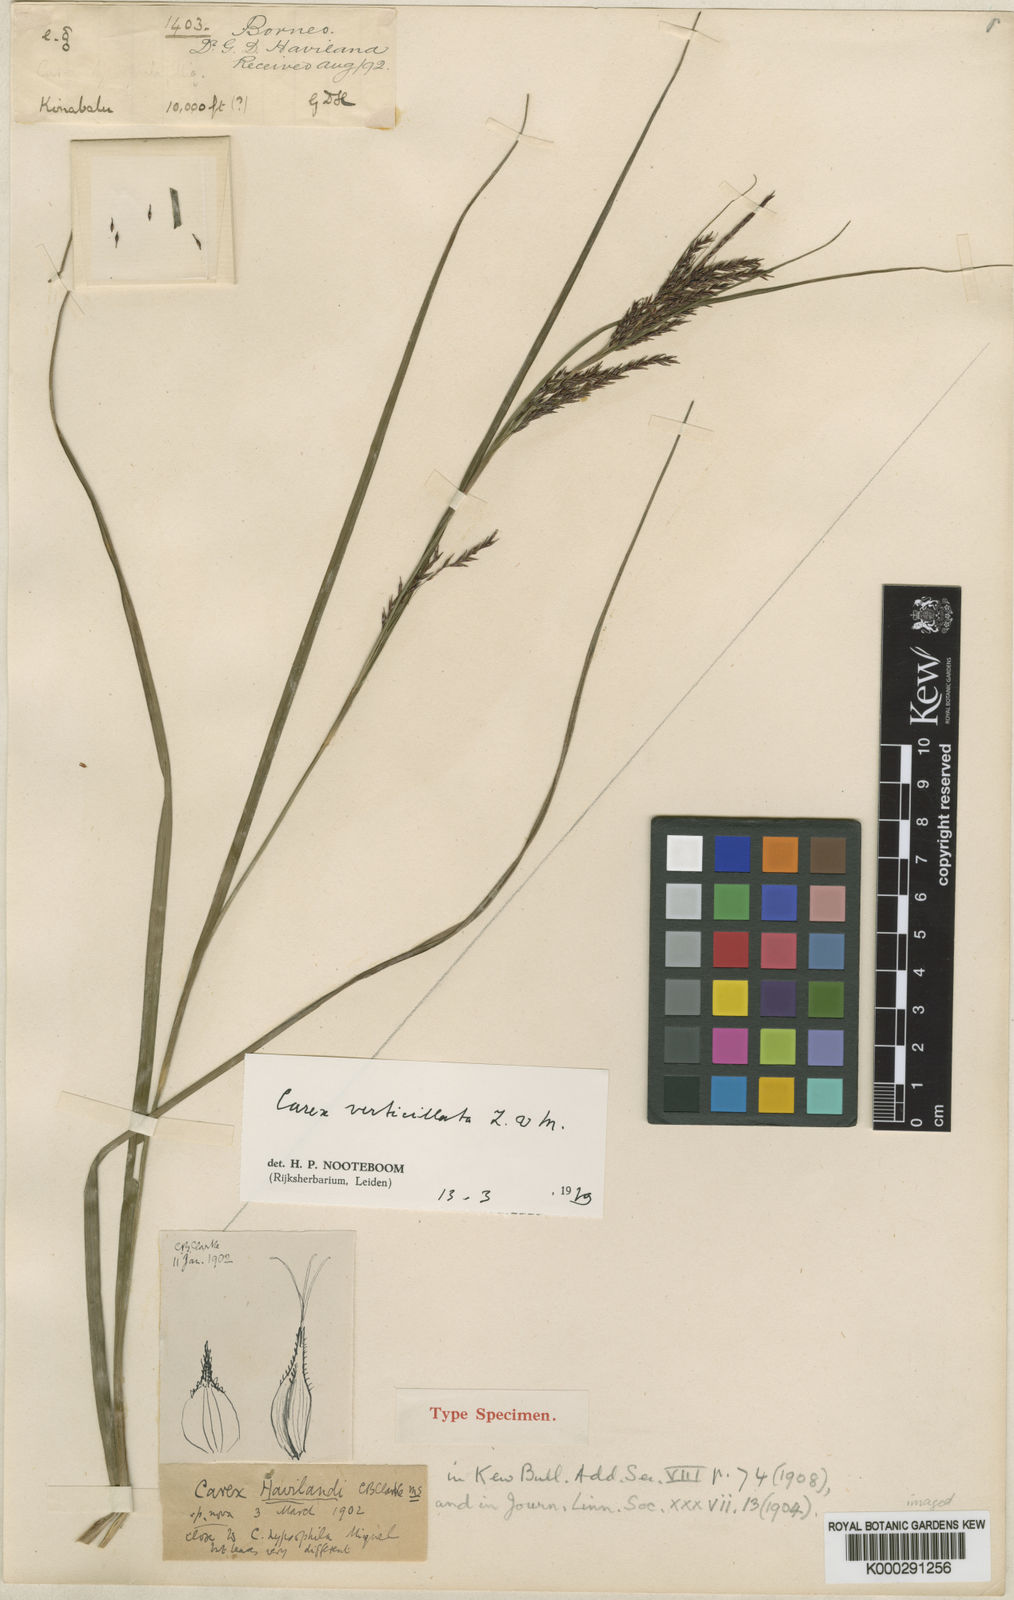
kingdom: Plantae
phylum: Tracheophyta
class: Liliopsida
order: Poales
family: Cyperaceae
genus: Carex
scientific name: Carex verticillata
